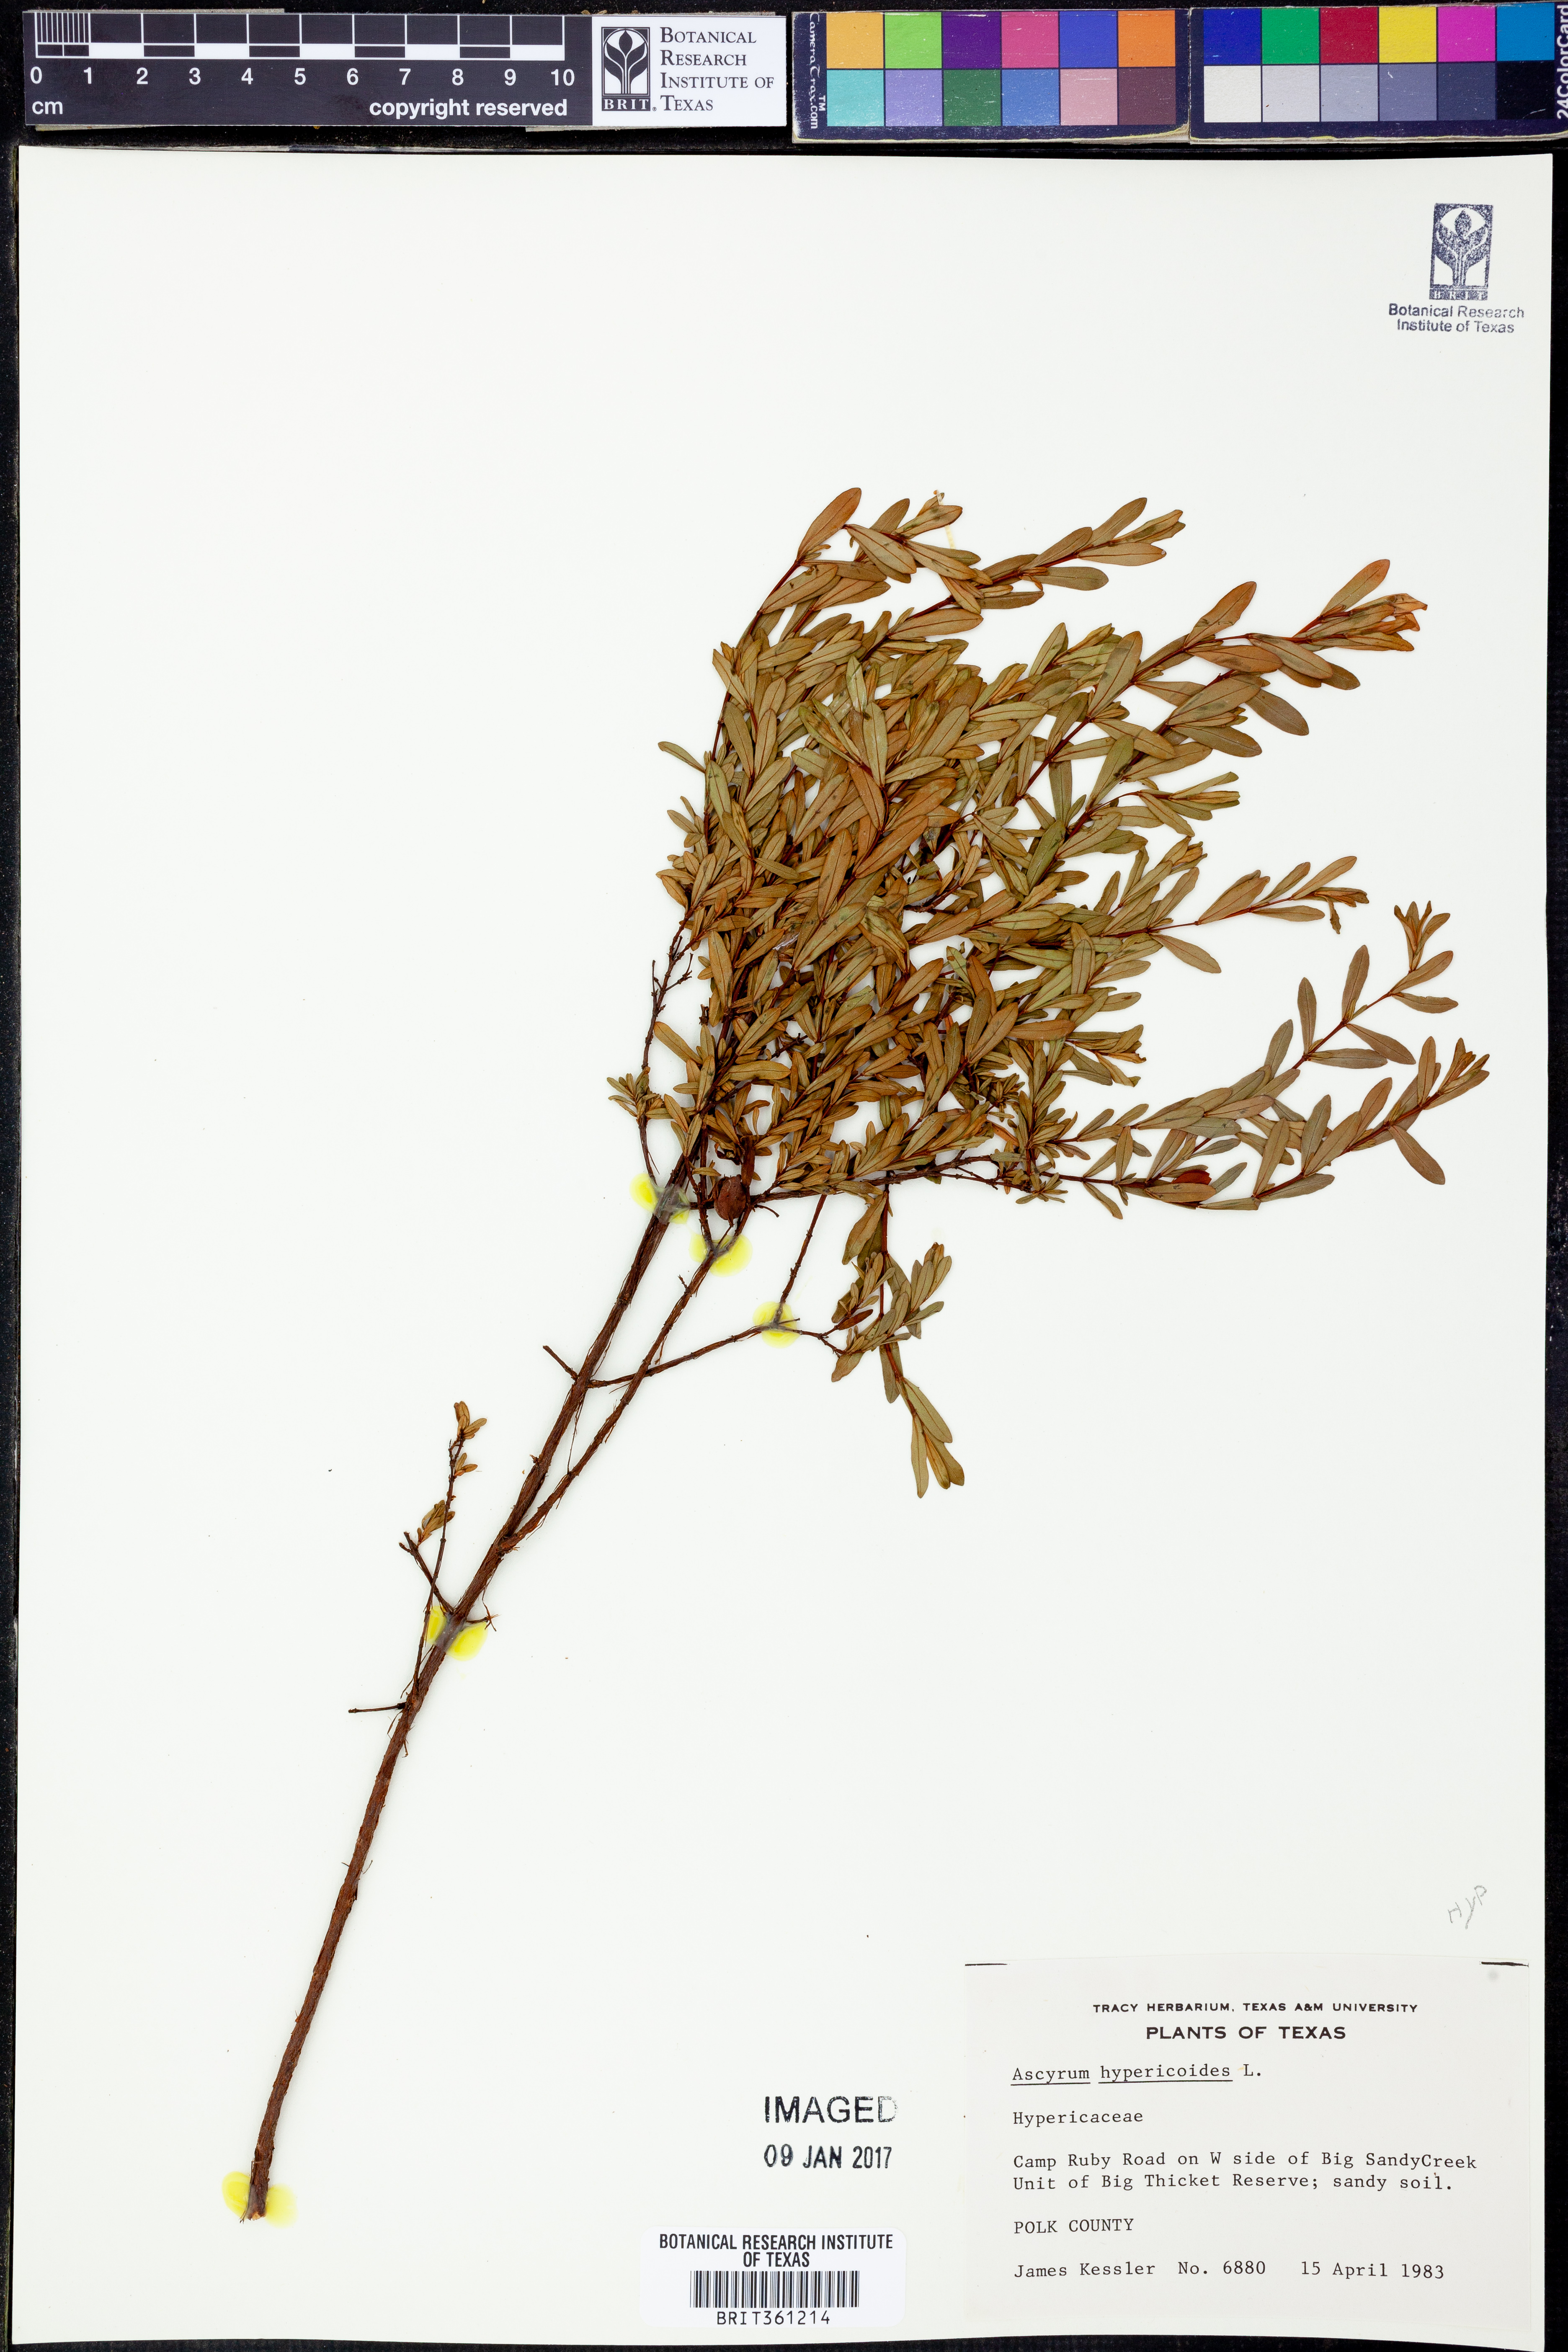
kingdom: Plantae
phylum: Tracheophyta
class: Magnoliopsida
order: Malpighiales
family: Hypericaceae
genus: Hypericum
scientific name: Hypericum hypericoides
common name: St. andrew's cross
